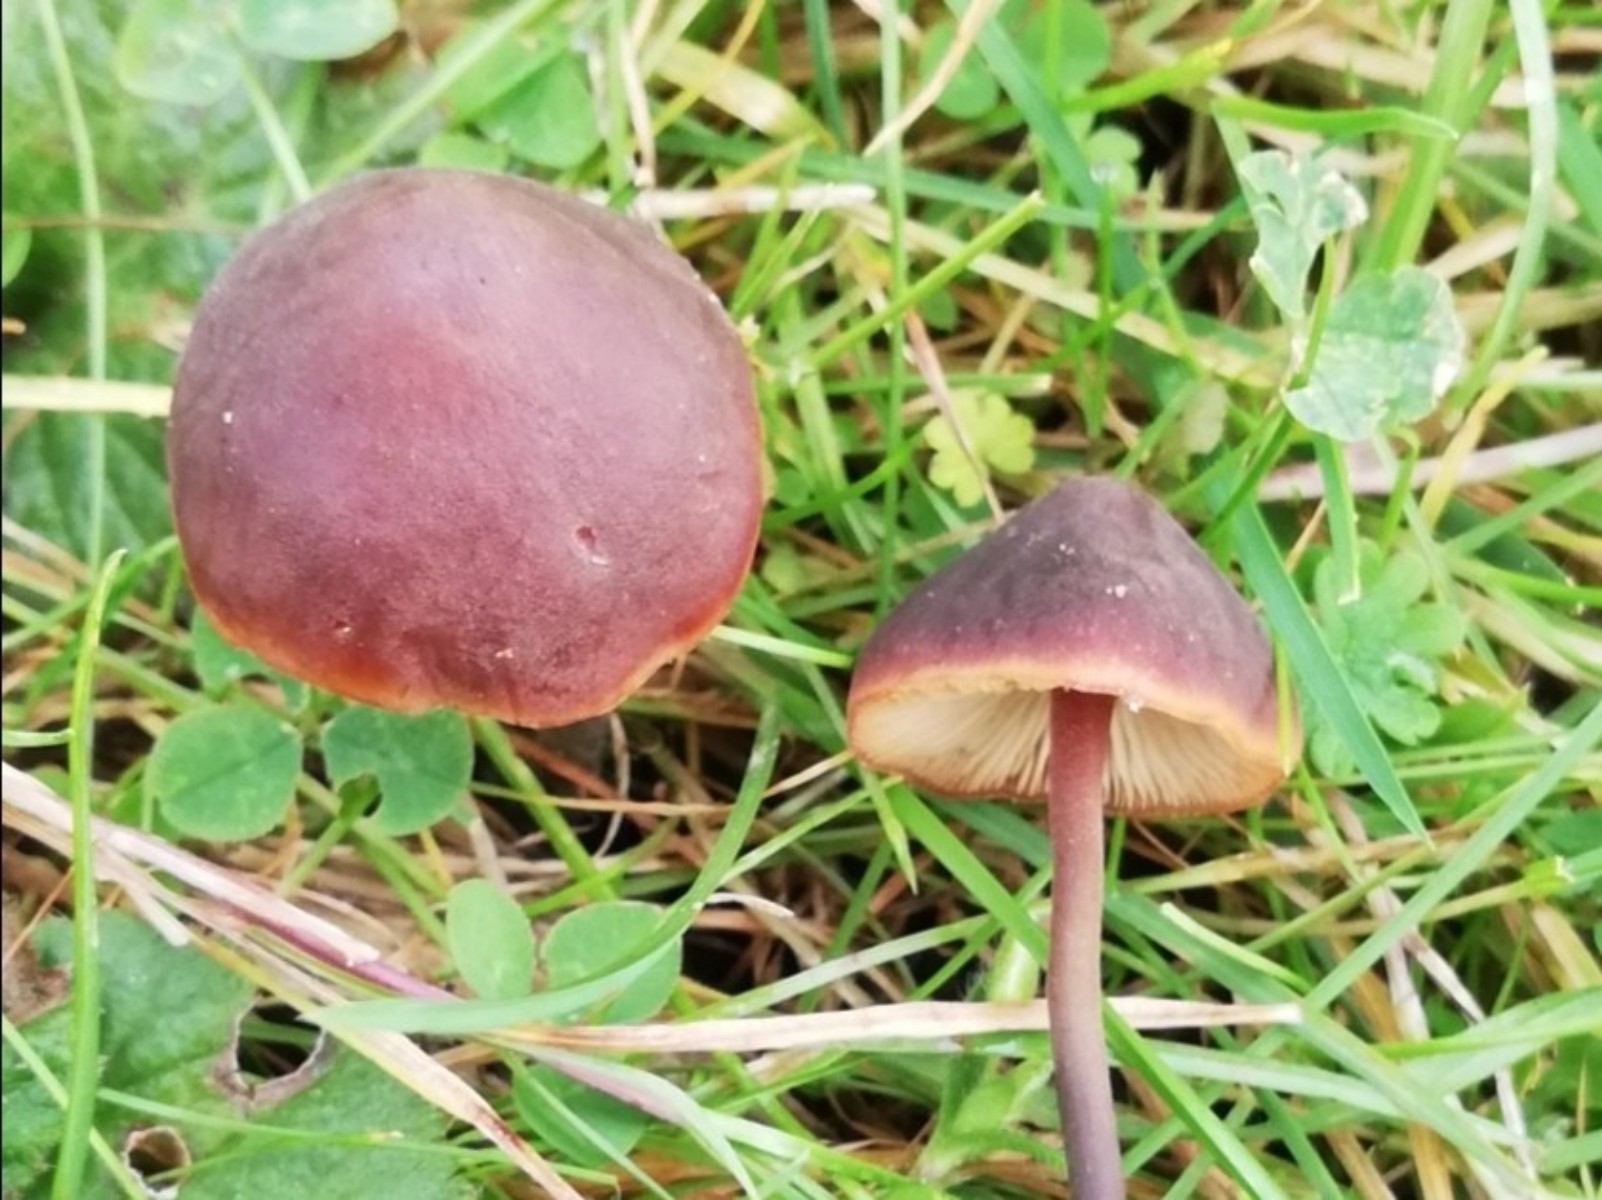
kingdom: Fungi
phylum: Basidiomycota
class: Agaricomycetes
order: Agaricales
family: Macrocystidiaceae
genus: Macrocystidia
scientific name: Macrocystidia cucumis
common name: agurkehat
